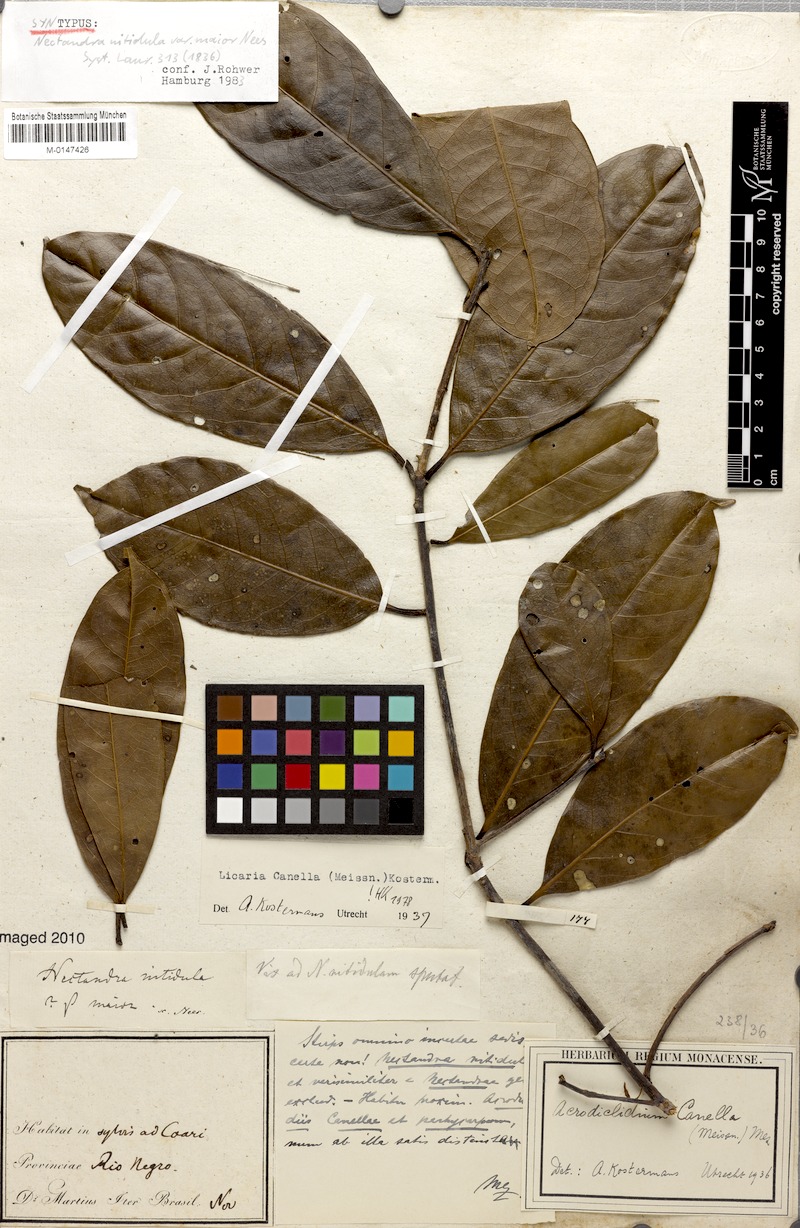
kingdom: Plantae
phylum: Tracheophyta
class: Magnoliopsida
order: Laurales
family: Lauraceae
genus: Licaria
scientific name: Licaria canella
